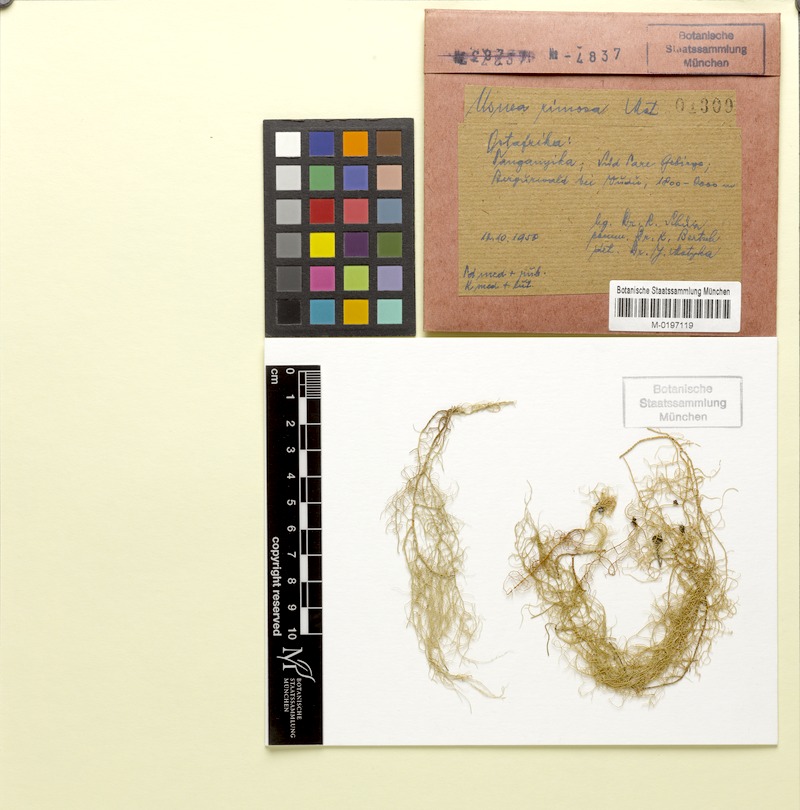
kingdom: Fungi
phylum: Ascomycota
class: Lecanoromycetes
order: Lecanorales
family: Parmeliaceae
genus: Usnea
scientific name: Usnea
